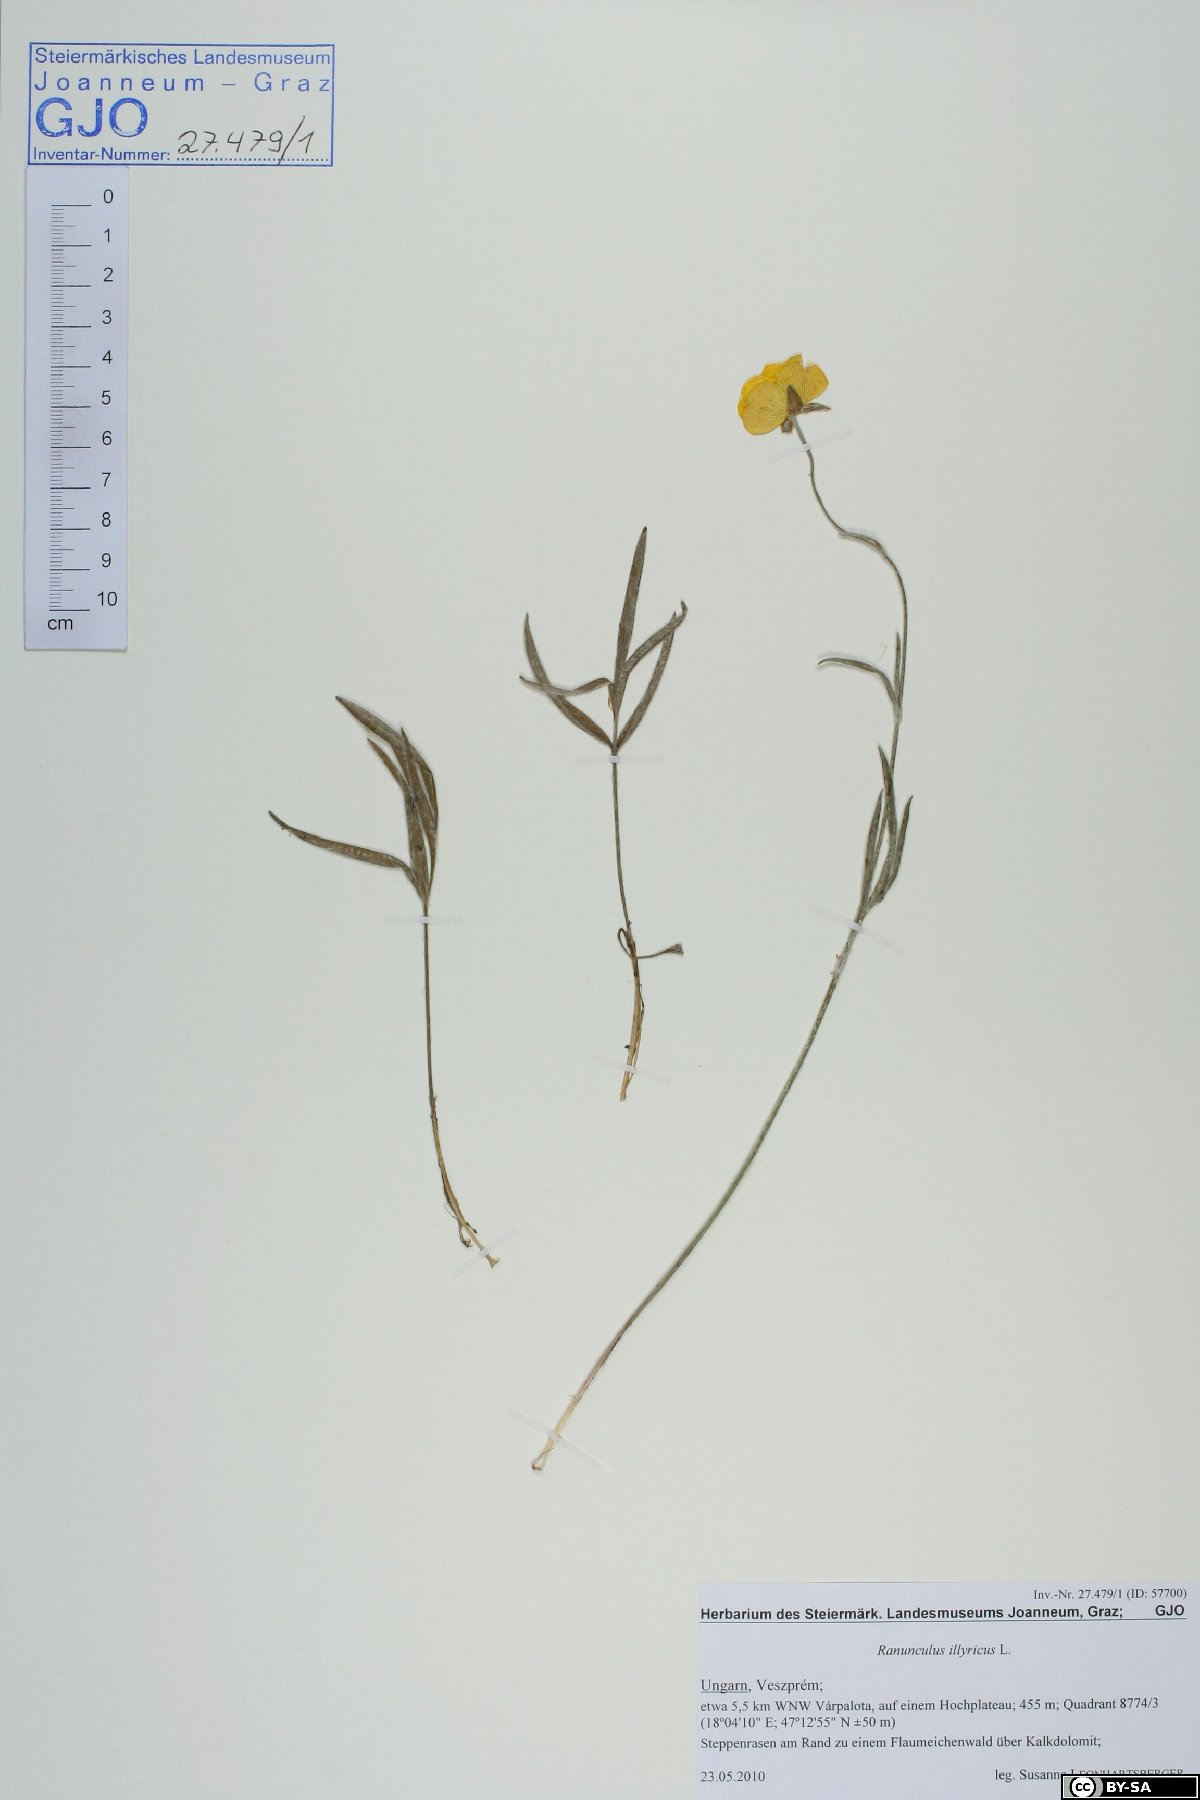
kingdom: Plantae
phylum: Tracheophyta
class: Magnoliopsida
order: Ranunculales
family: Ranunculaceae
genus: Ranunculus
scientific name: Ranunculus illyricus
